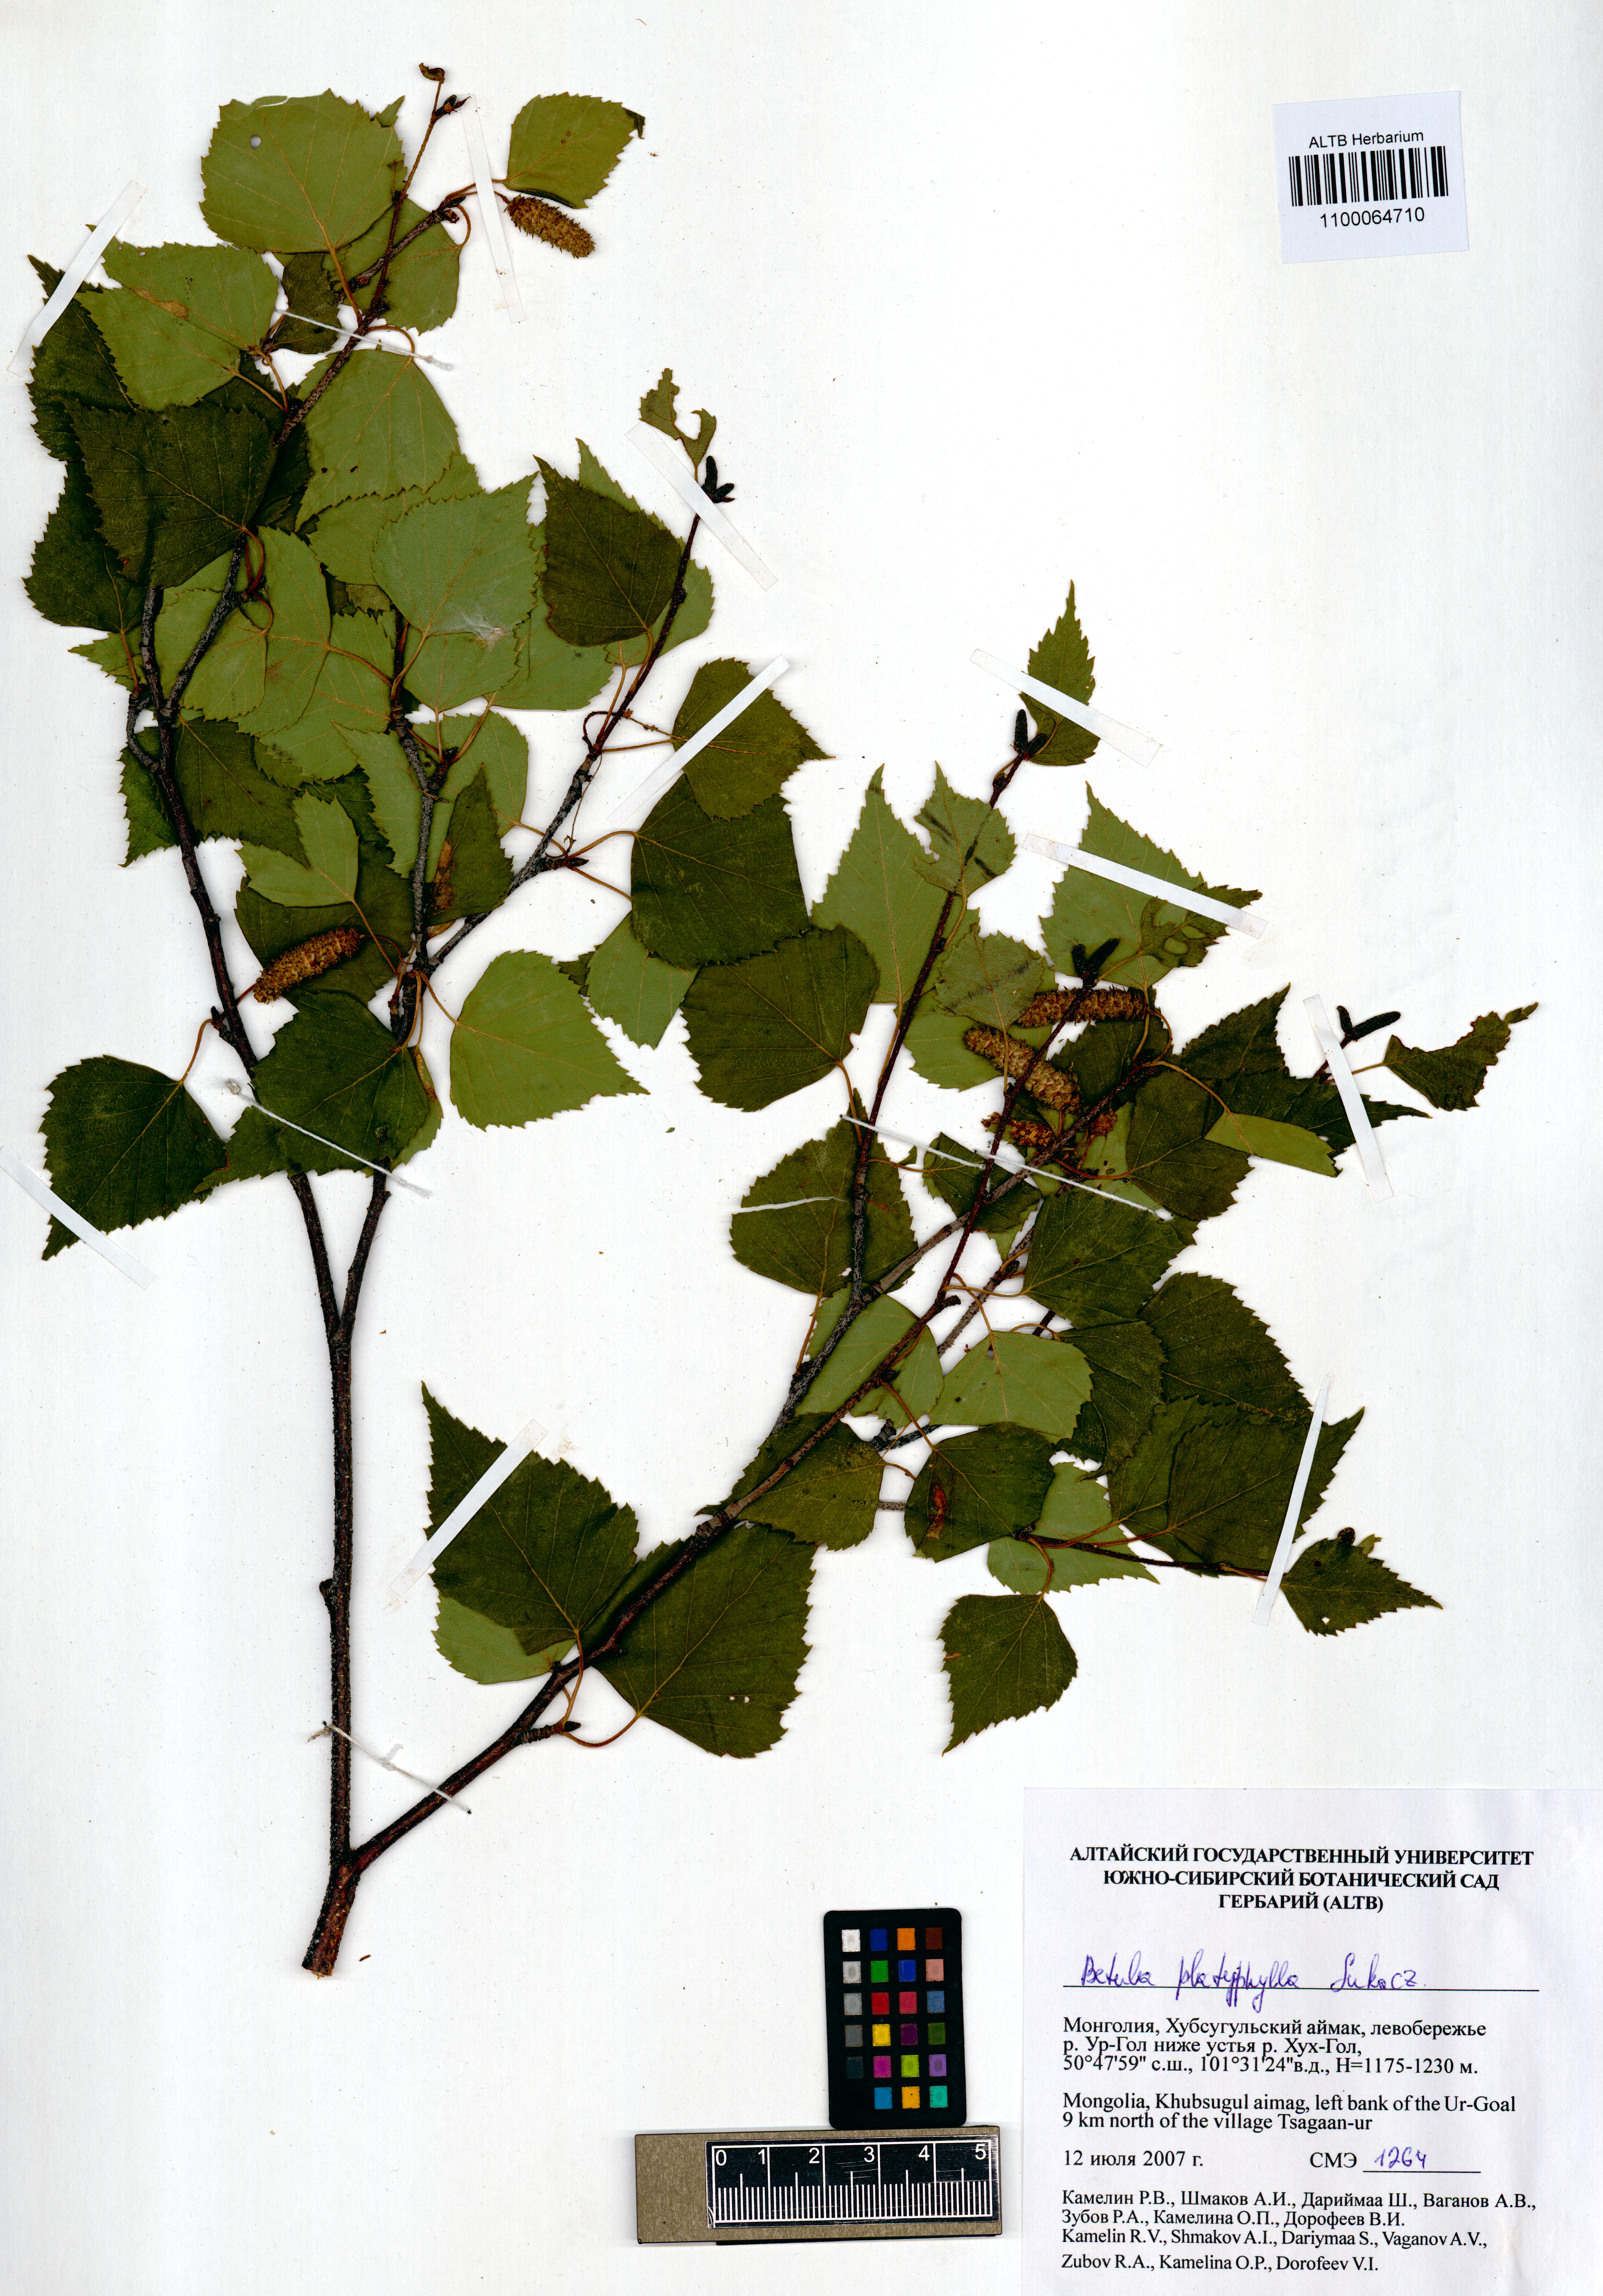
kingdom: Plantae
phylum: Tracheophyta
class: Magnoliopsida
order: Fagales
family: Betulaceae
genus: Betula
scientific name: Betula pendula
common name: Silver birch
